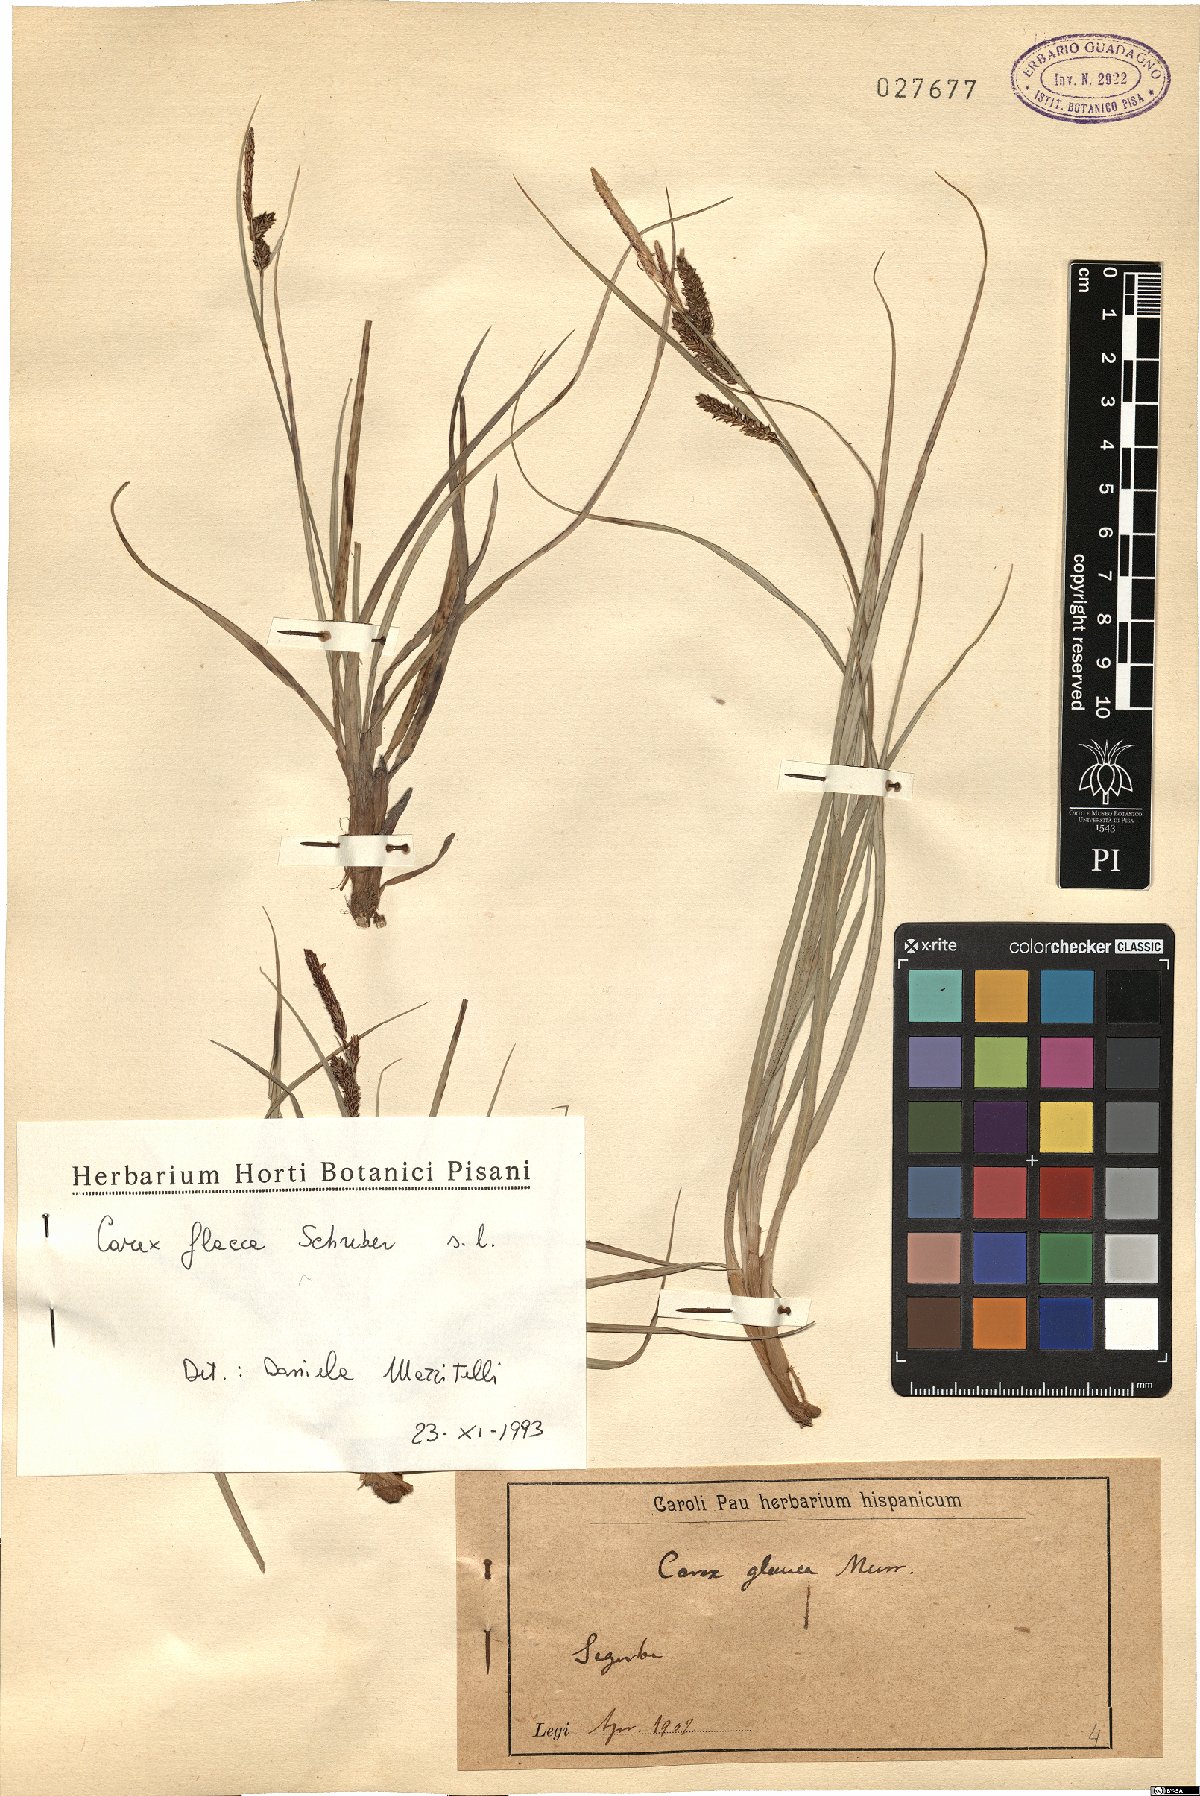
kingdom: Plantae
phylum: Tracheophyta
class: Liliopsida
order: Poales
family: Cyperaceae
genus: Carex
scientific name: Carex flacca
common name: Glaucous sedge
